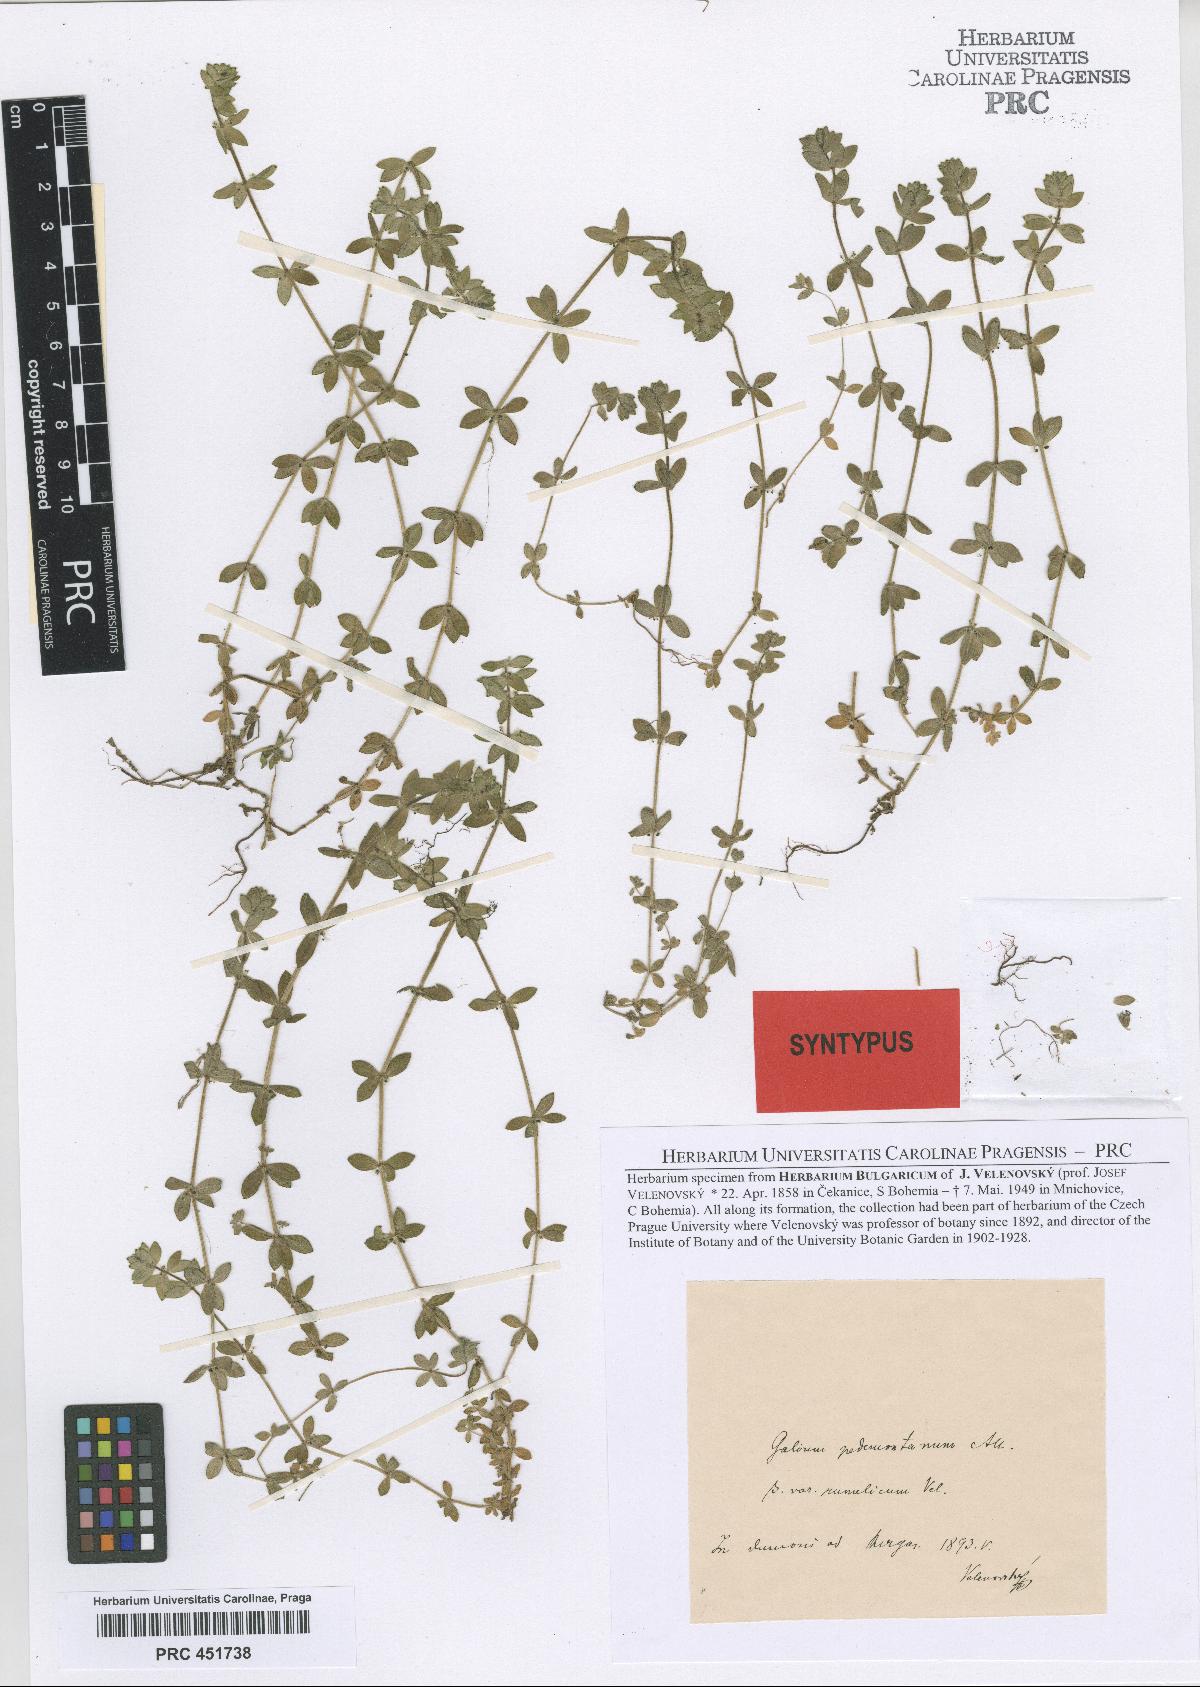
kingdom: Plantae
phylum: Tracheophyta
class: Magnoliopsida
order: Gentianales
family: Rubiaceae
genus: Cruciata
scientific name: Cruciata pedemontana
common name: Piedmont bedstraw
